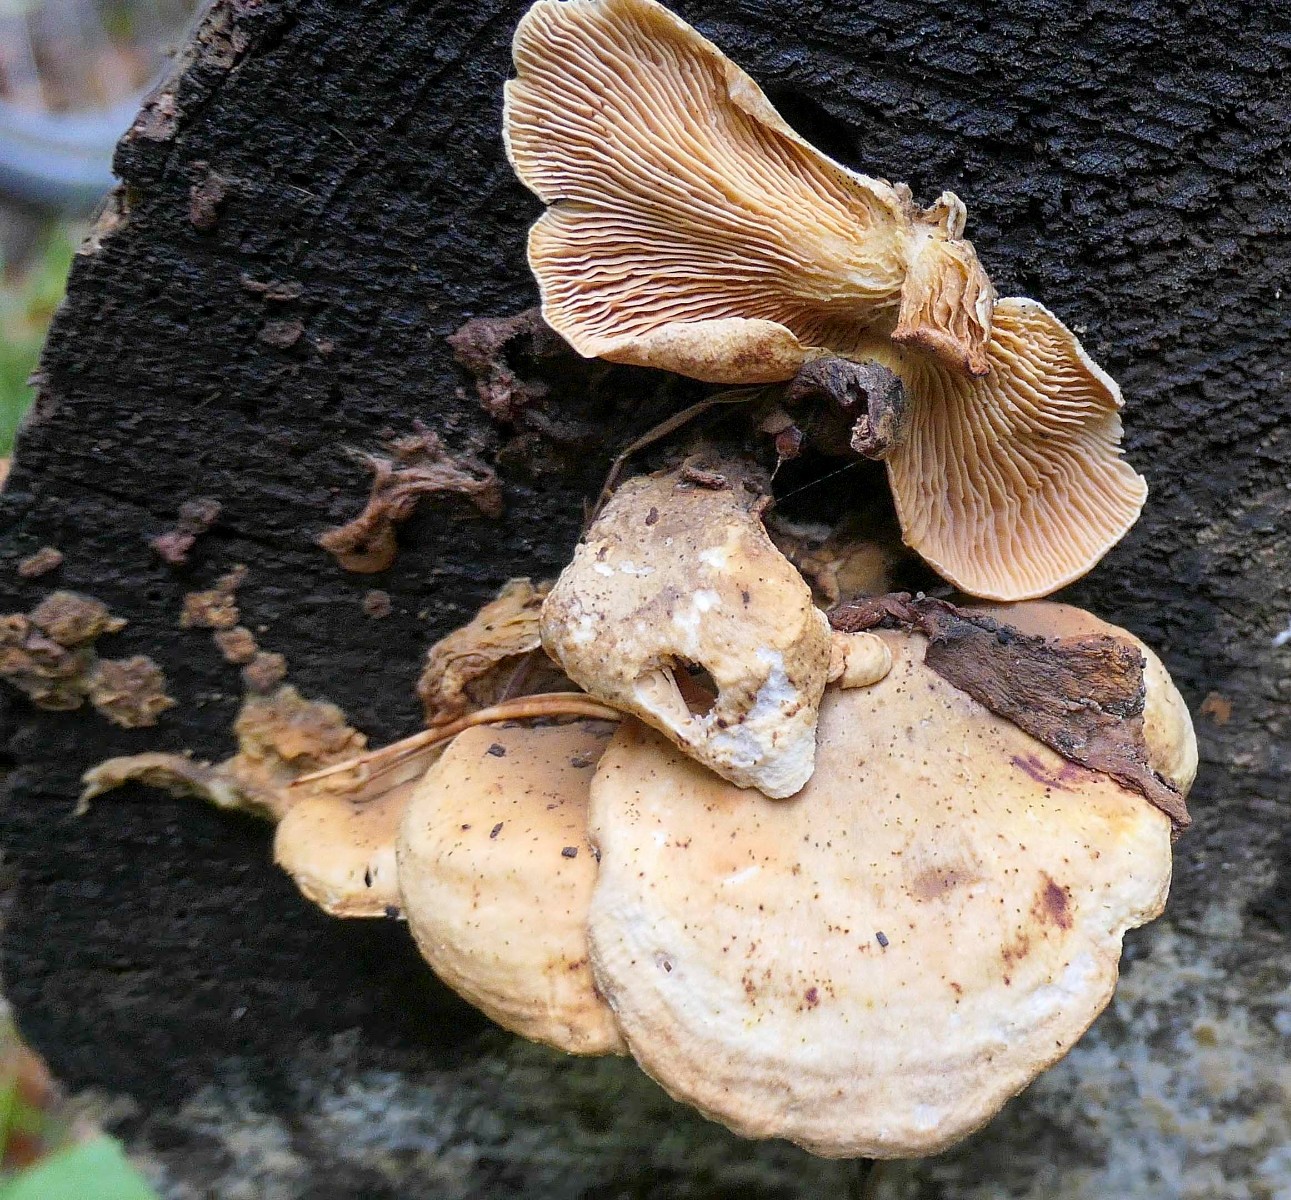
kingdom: Fungi
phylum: Basidiomycota
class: Agaricomycetes
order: Boletales
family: Tapinellaceae
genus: Tapinella
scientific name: Tapinella panuoides
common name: tømmer-viftesvamp
